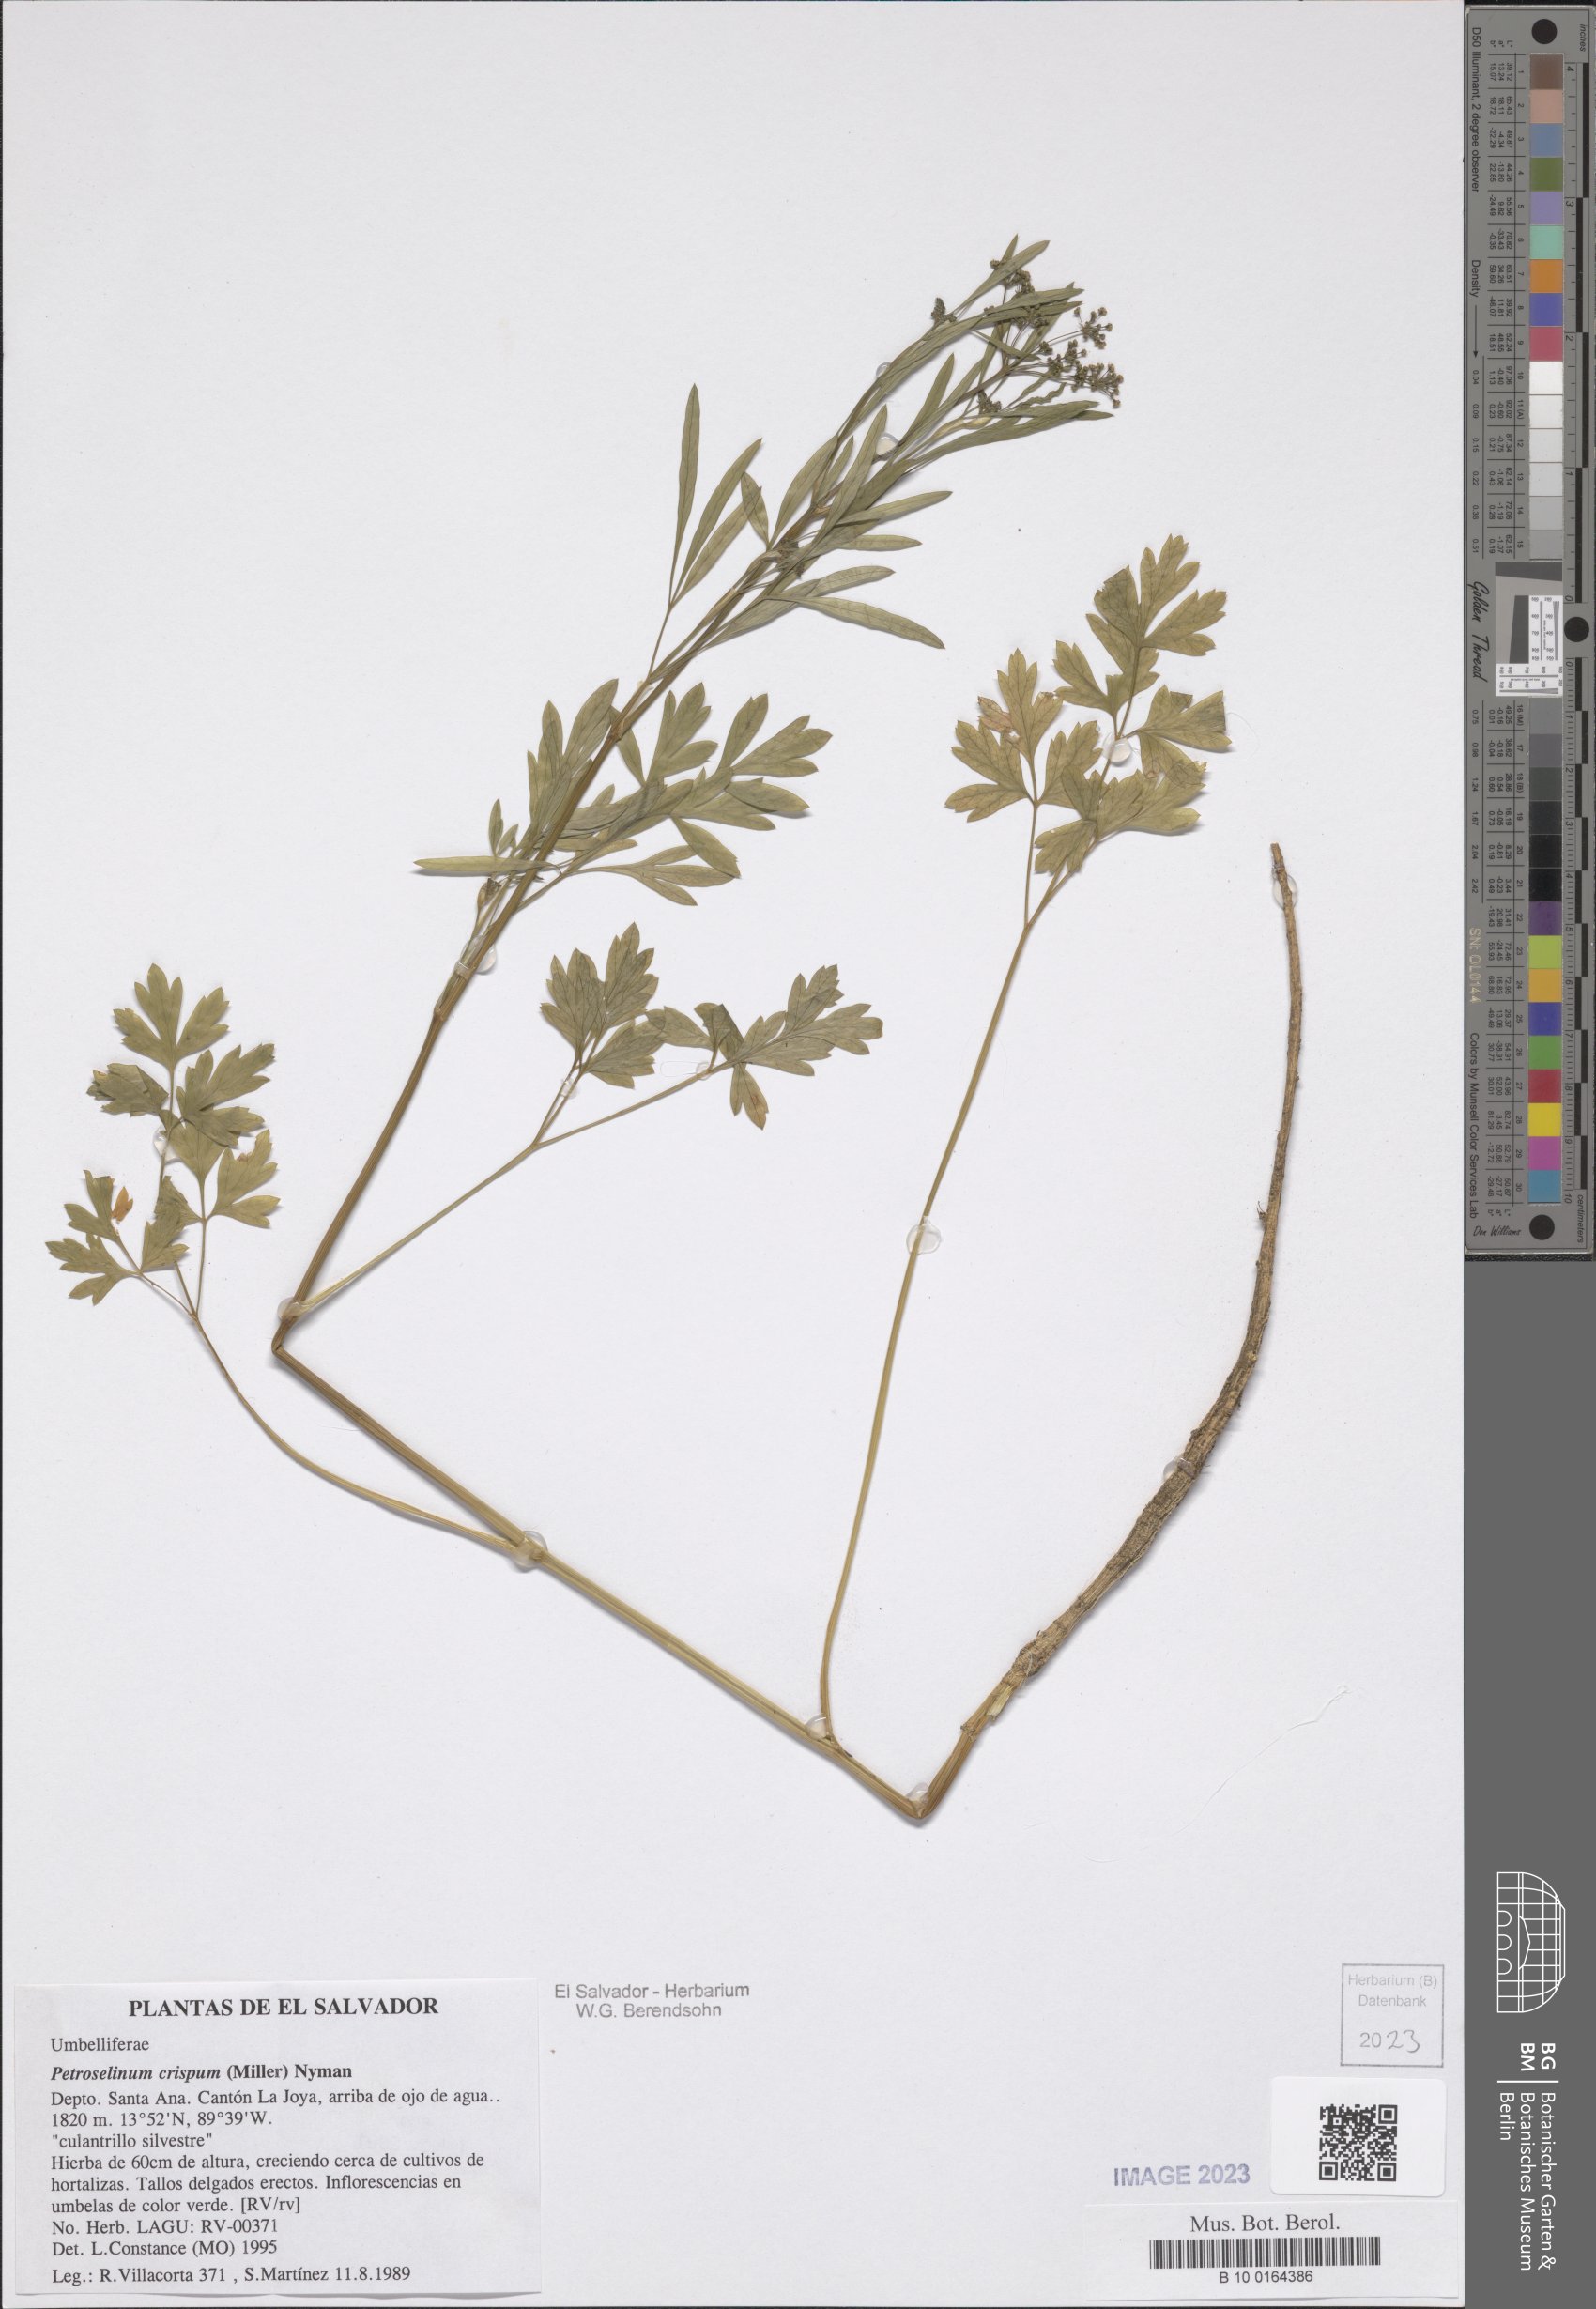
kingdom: Plantae
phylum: Tracheophyta
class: Magnoliopsida
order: Apiales
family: Apiaceae
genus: Petroselinum
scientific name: Petroselinum crispum
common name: Parsley
